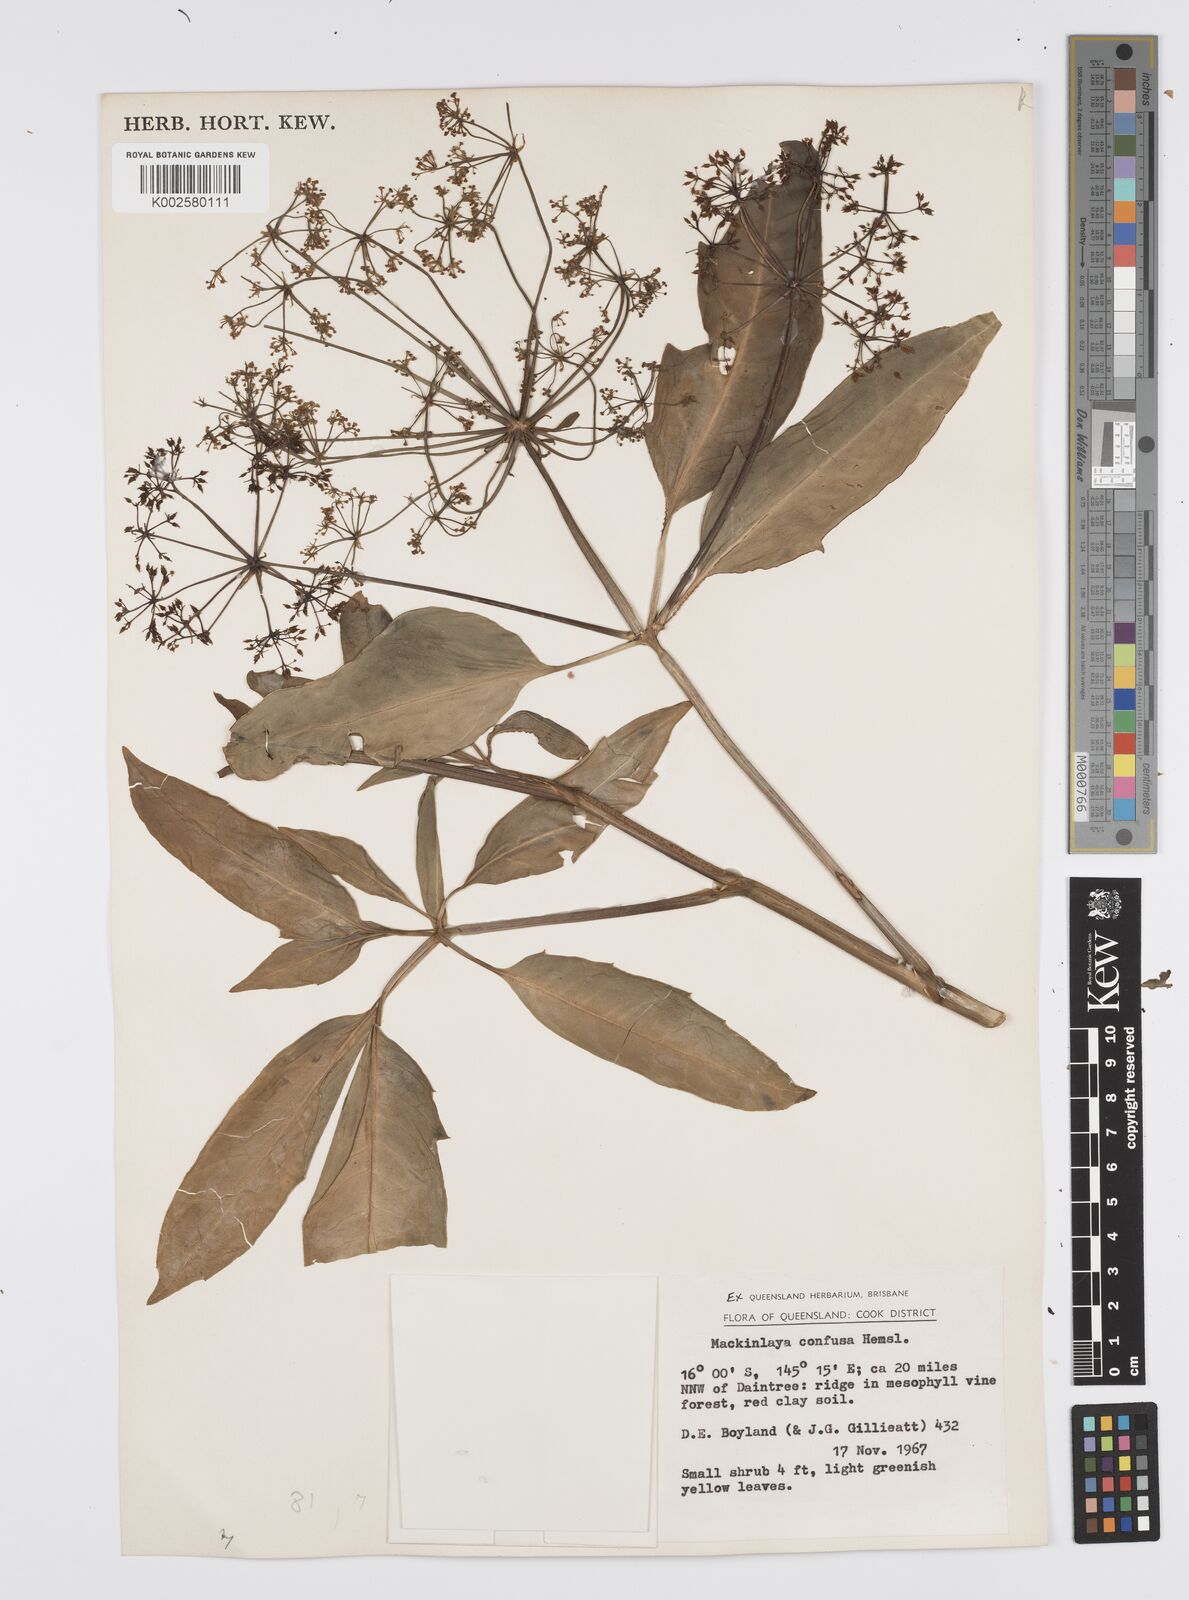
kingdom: Plantae
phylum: Tracheophyta
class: Magnoliopsida
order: Apiales
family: Apiaceae
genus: Mackinlaya
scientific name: Mackinlaya confusa
